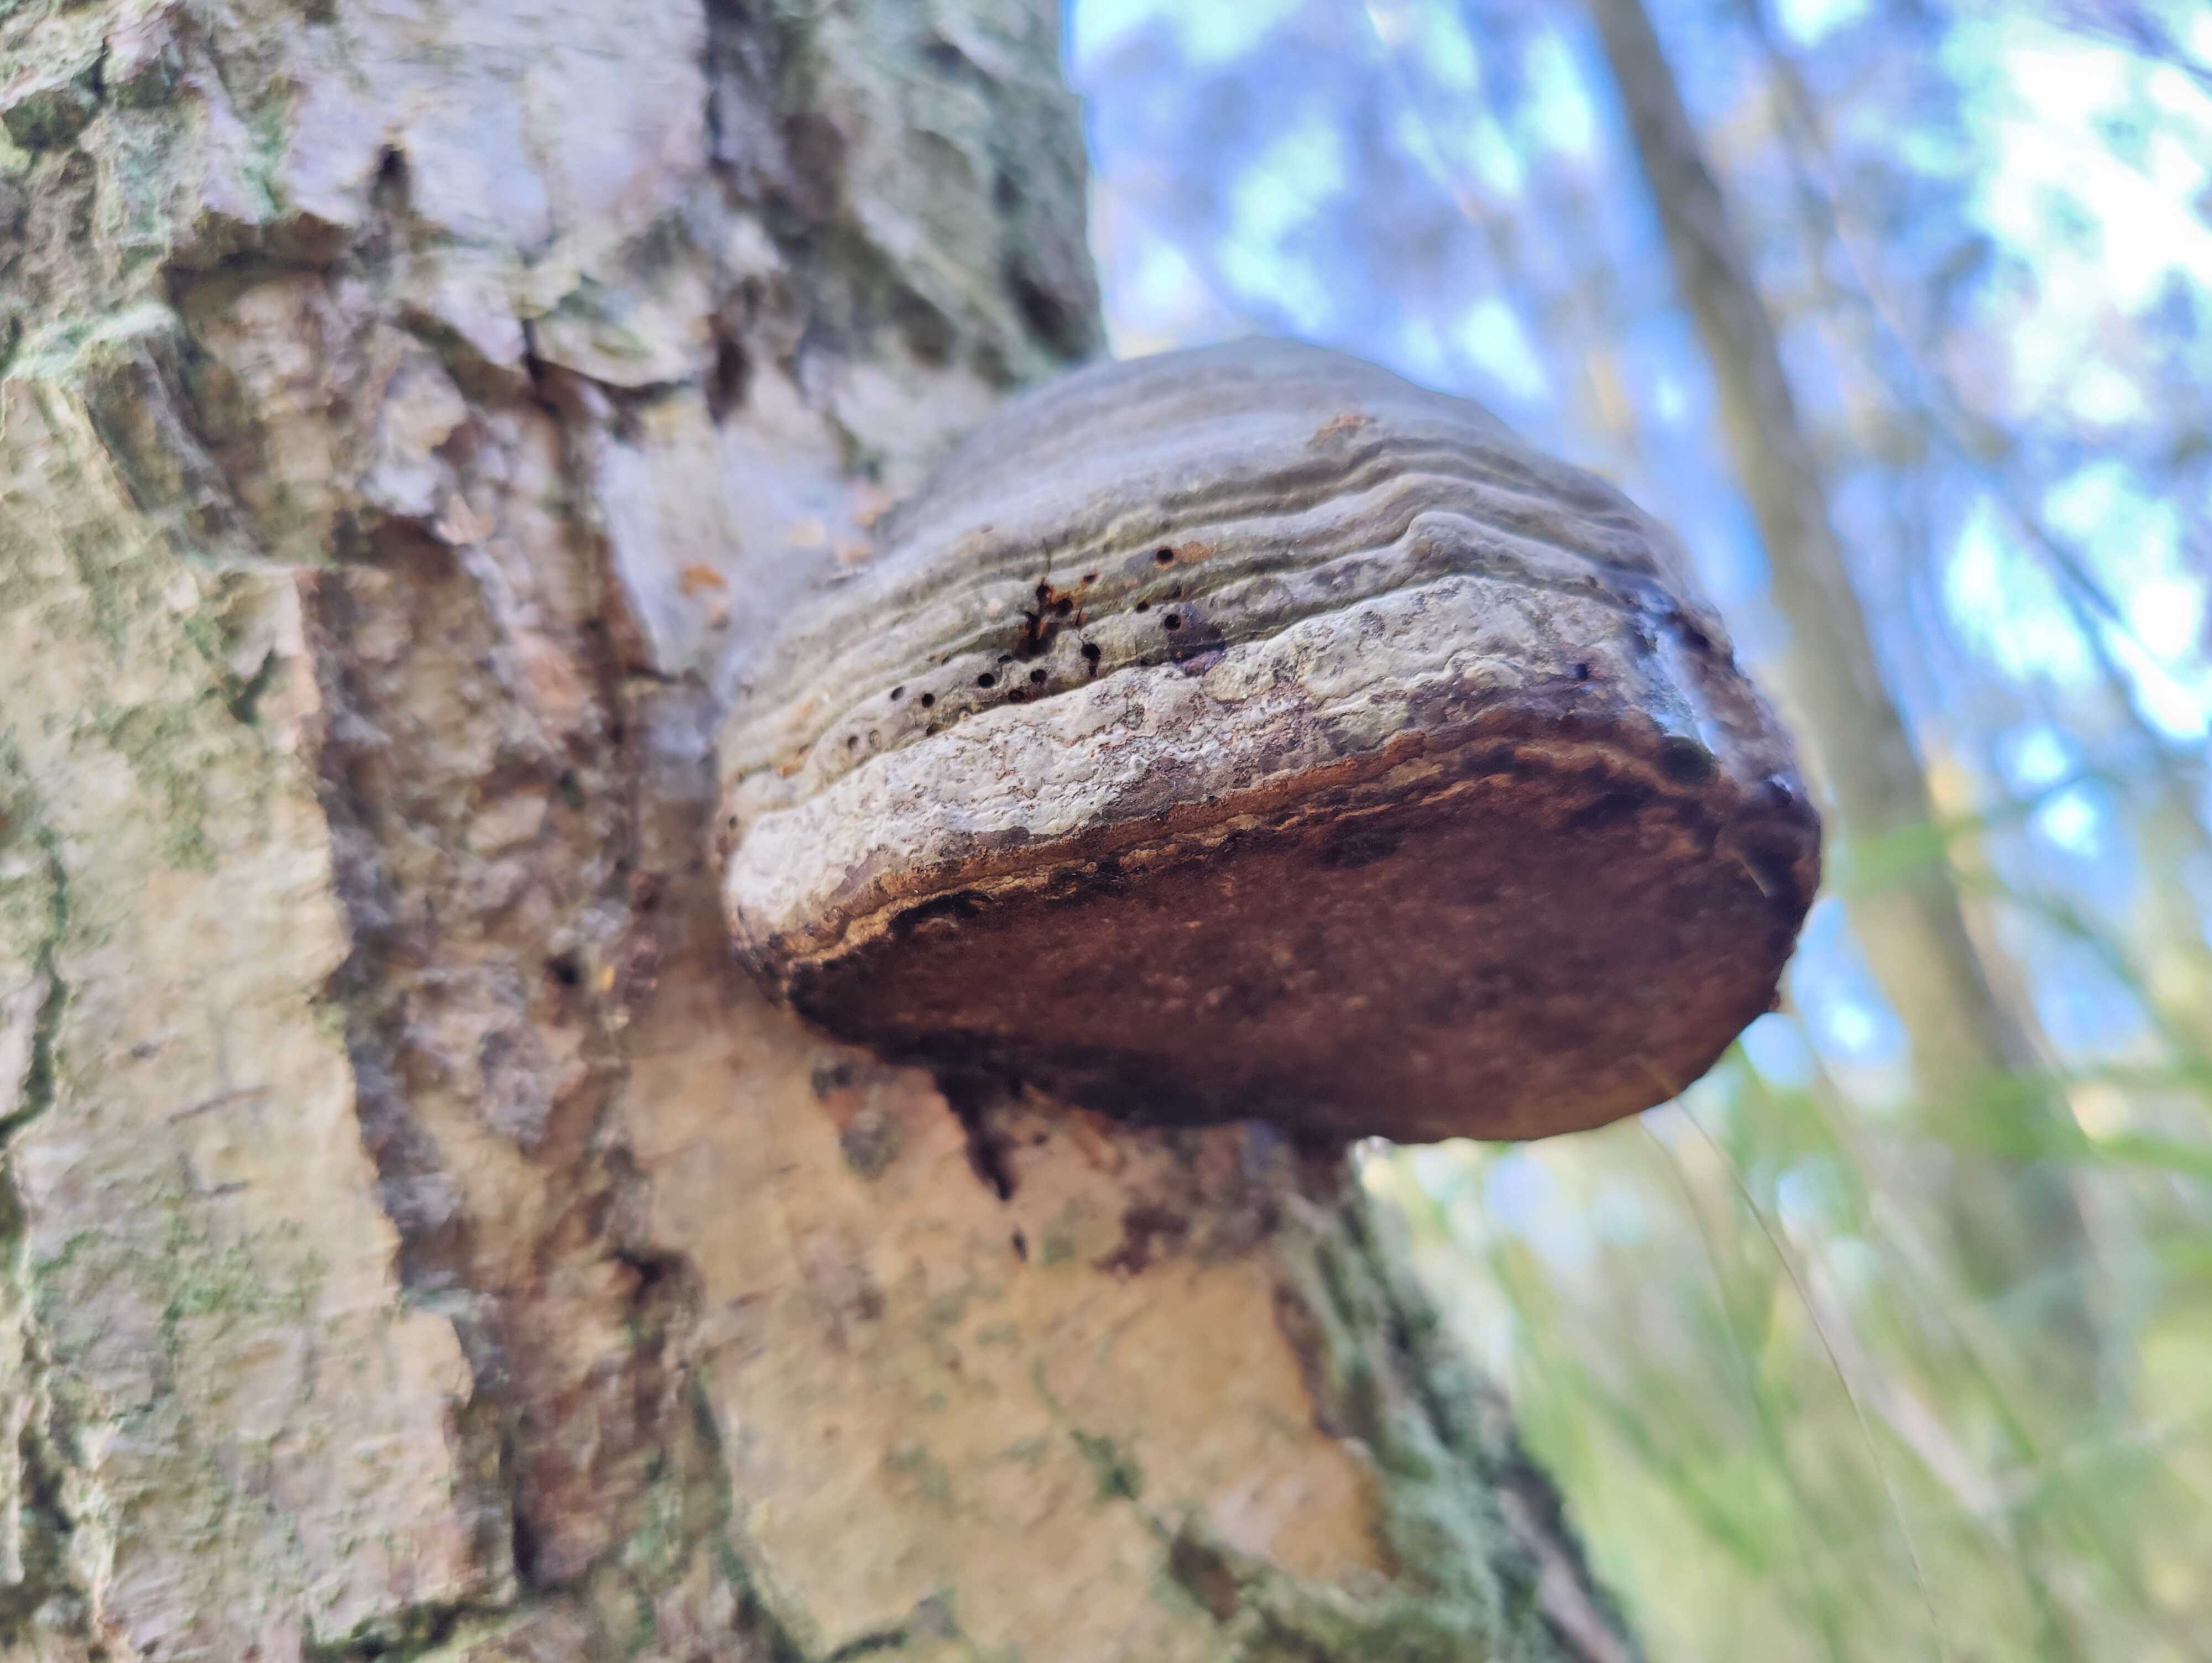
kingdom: Fungi
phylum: Basidiomycota
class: Agaricomycetes
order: Polyporales
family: Polyporaceae
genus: Fomes
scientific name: Fomes fomentarius
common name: tøndersvamp
